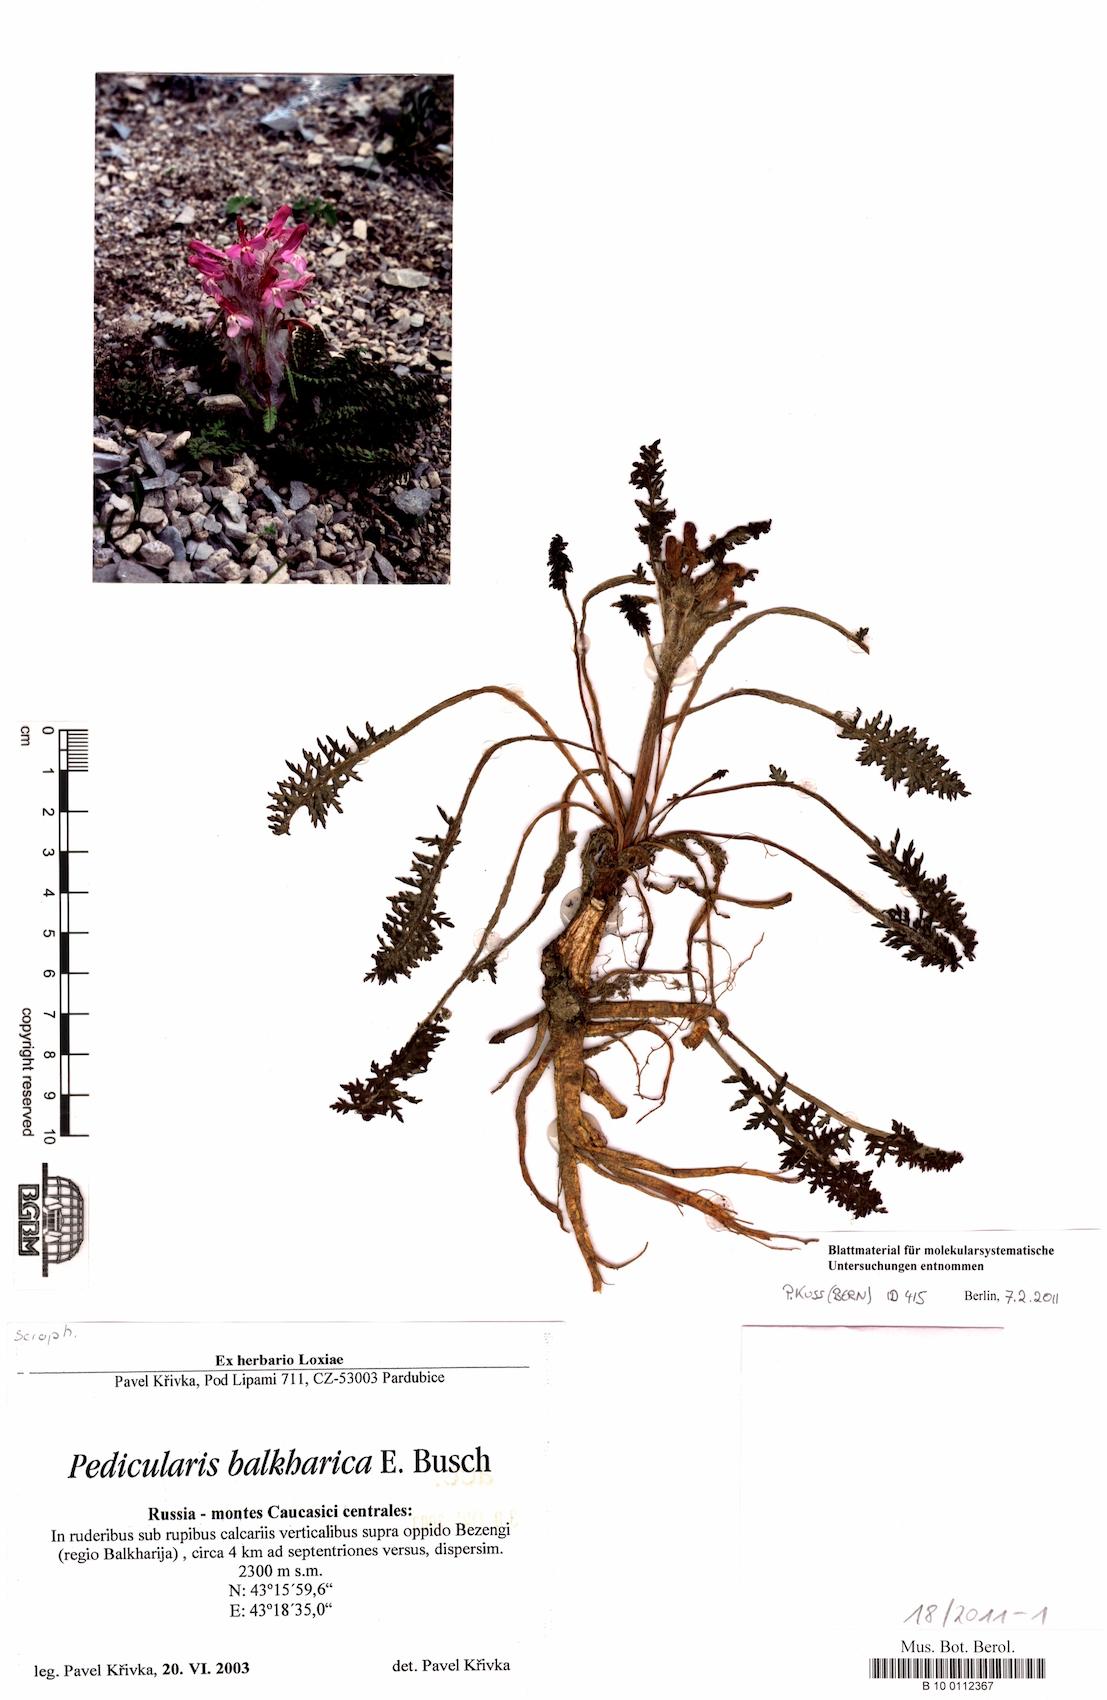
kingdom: Plantae
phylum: Tracheophyta
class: Magnoliopsida
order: Lamiales
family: Orobanchaceae
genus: Pedicularis
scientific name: Pedicularis balkharica
